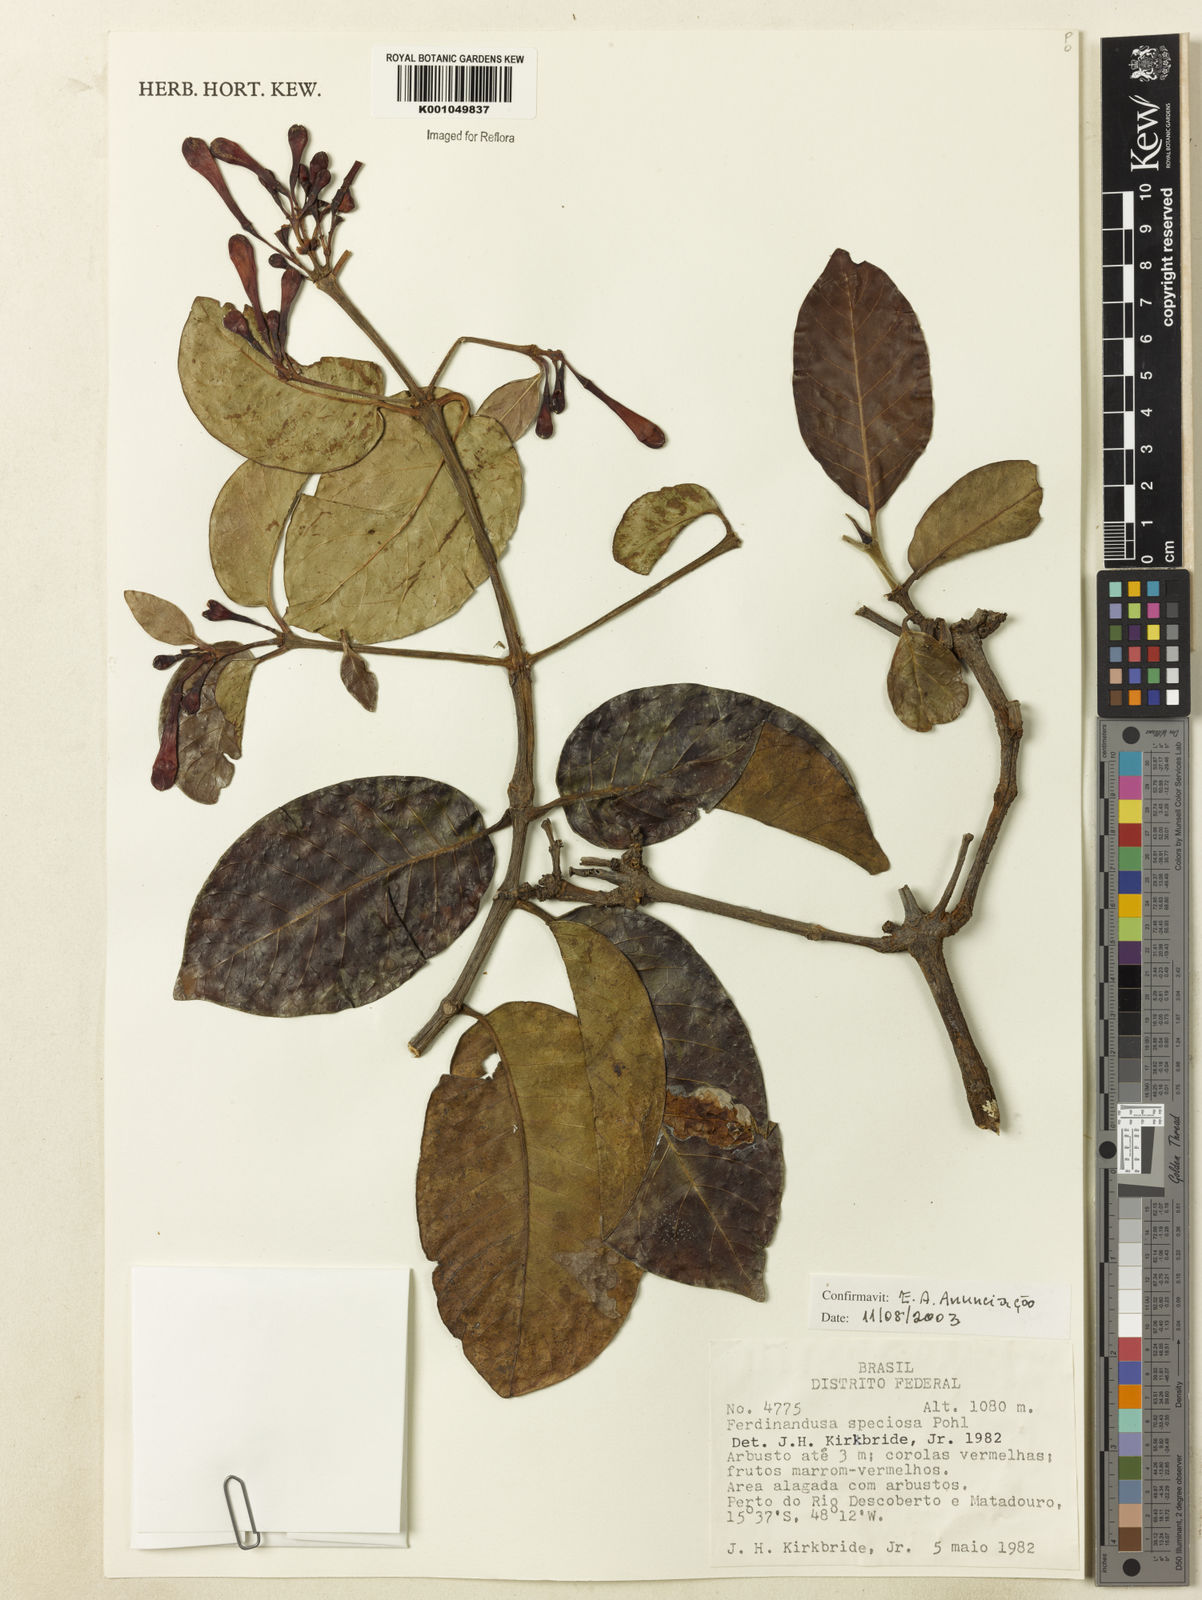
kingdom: Plantae
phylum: Tracheophyta
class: Magnoliopsida
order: Gentianales
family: Rubiaceae
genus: Ferdinandusa
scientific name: Ferdinandusa speciosa
